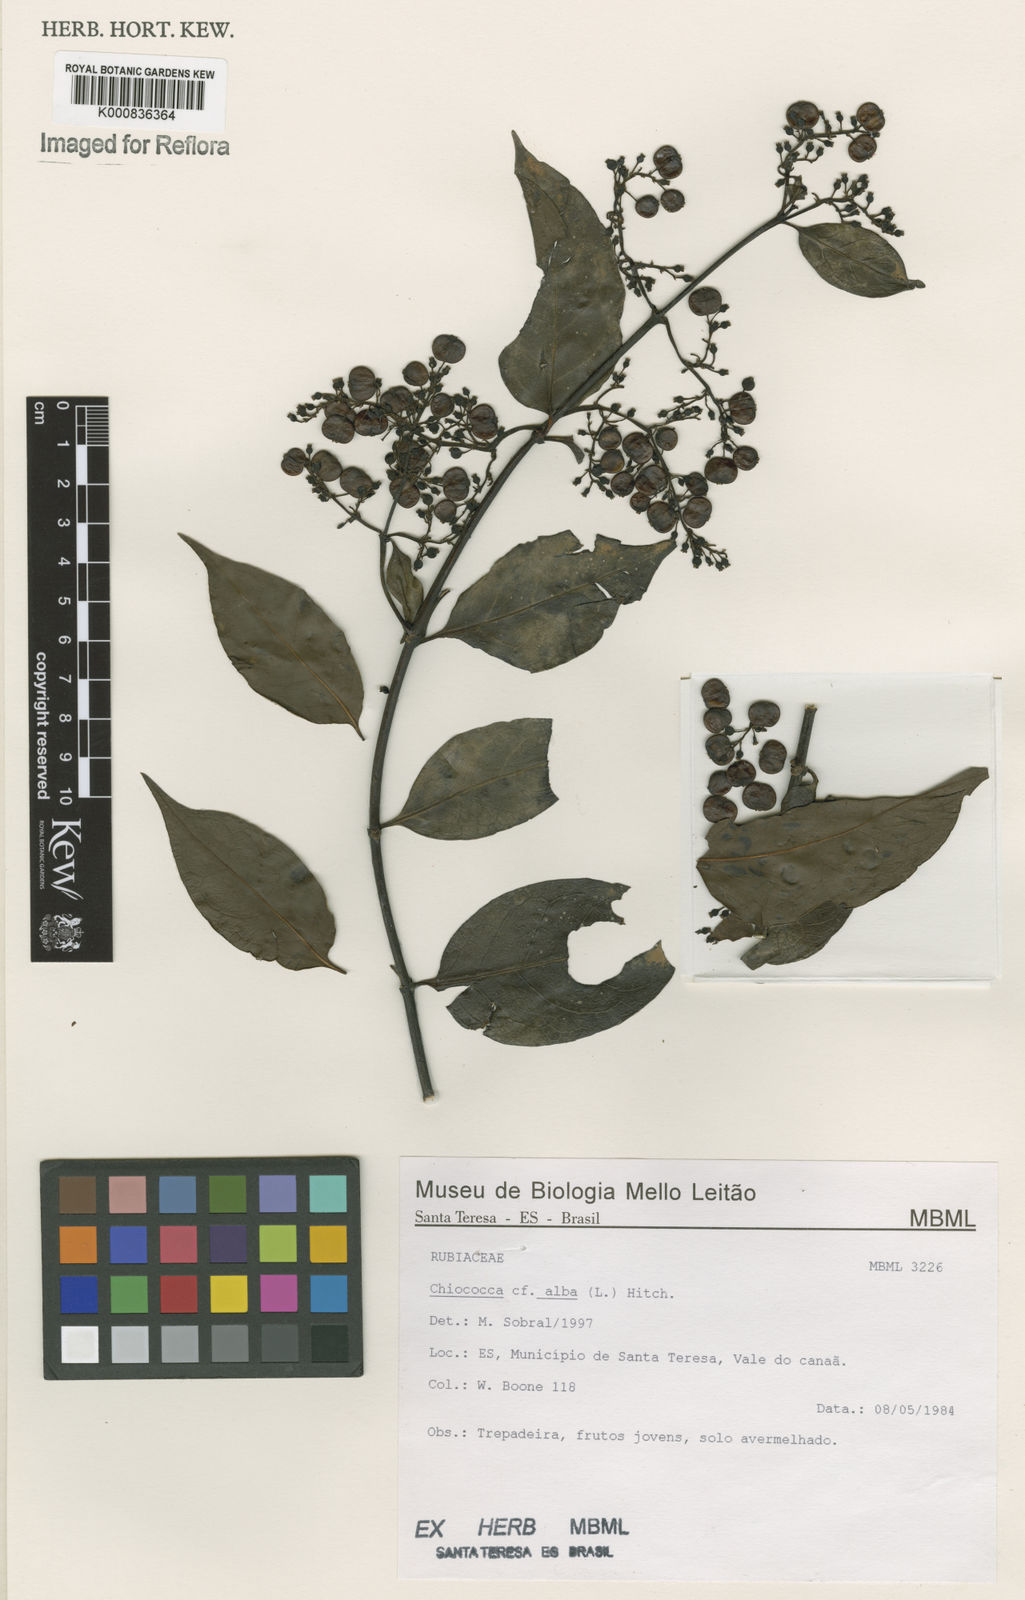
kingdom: Plantae
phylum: Tracheophyta
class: Magnoliopsida
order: Gentianales
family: Rubiaceae
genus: Chiococca
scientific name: Chiococca alba
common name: Snowberry
